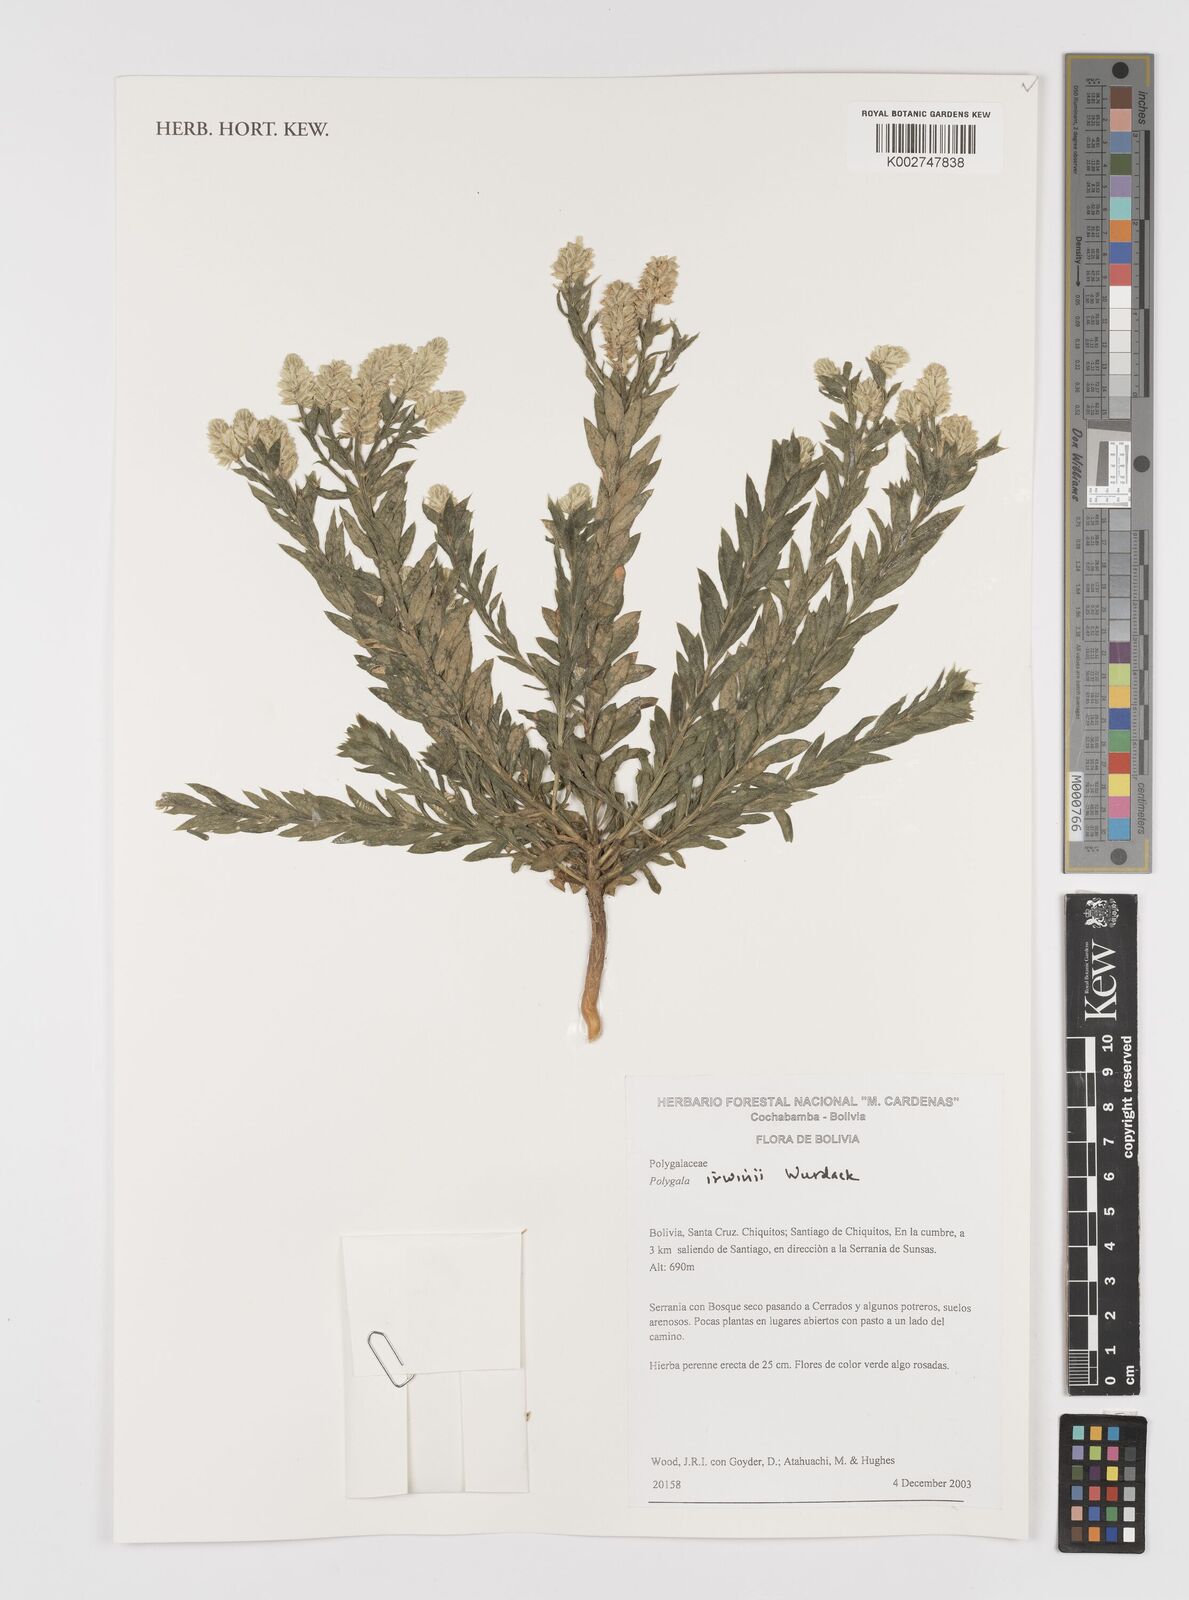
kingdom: Plantae
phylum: Tracheophyta
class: Magnoliopsida
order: Fabales
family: Polygalaceae
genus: Polygala
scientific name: Polygala irwinii
